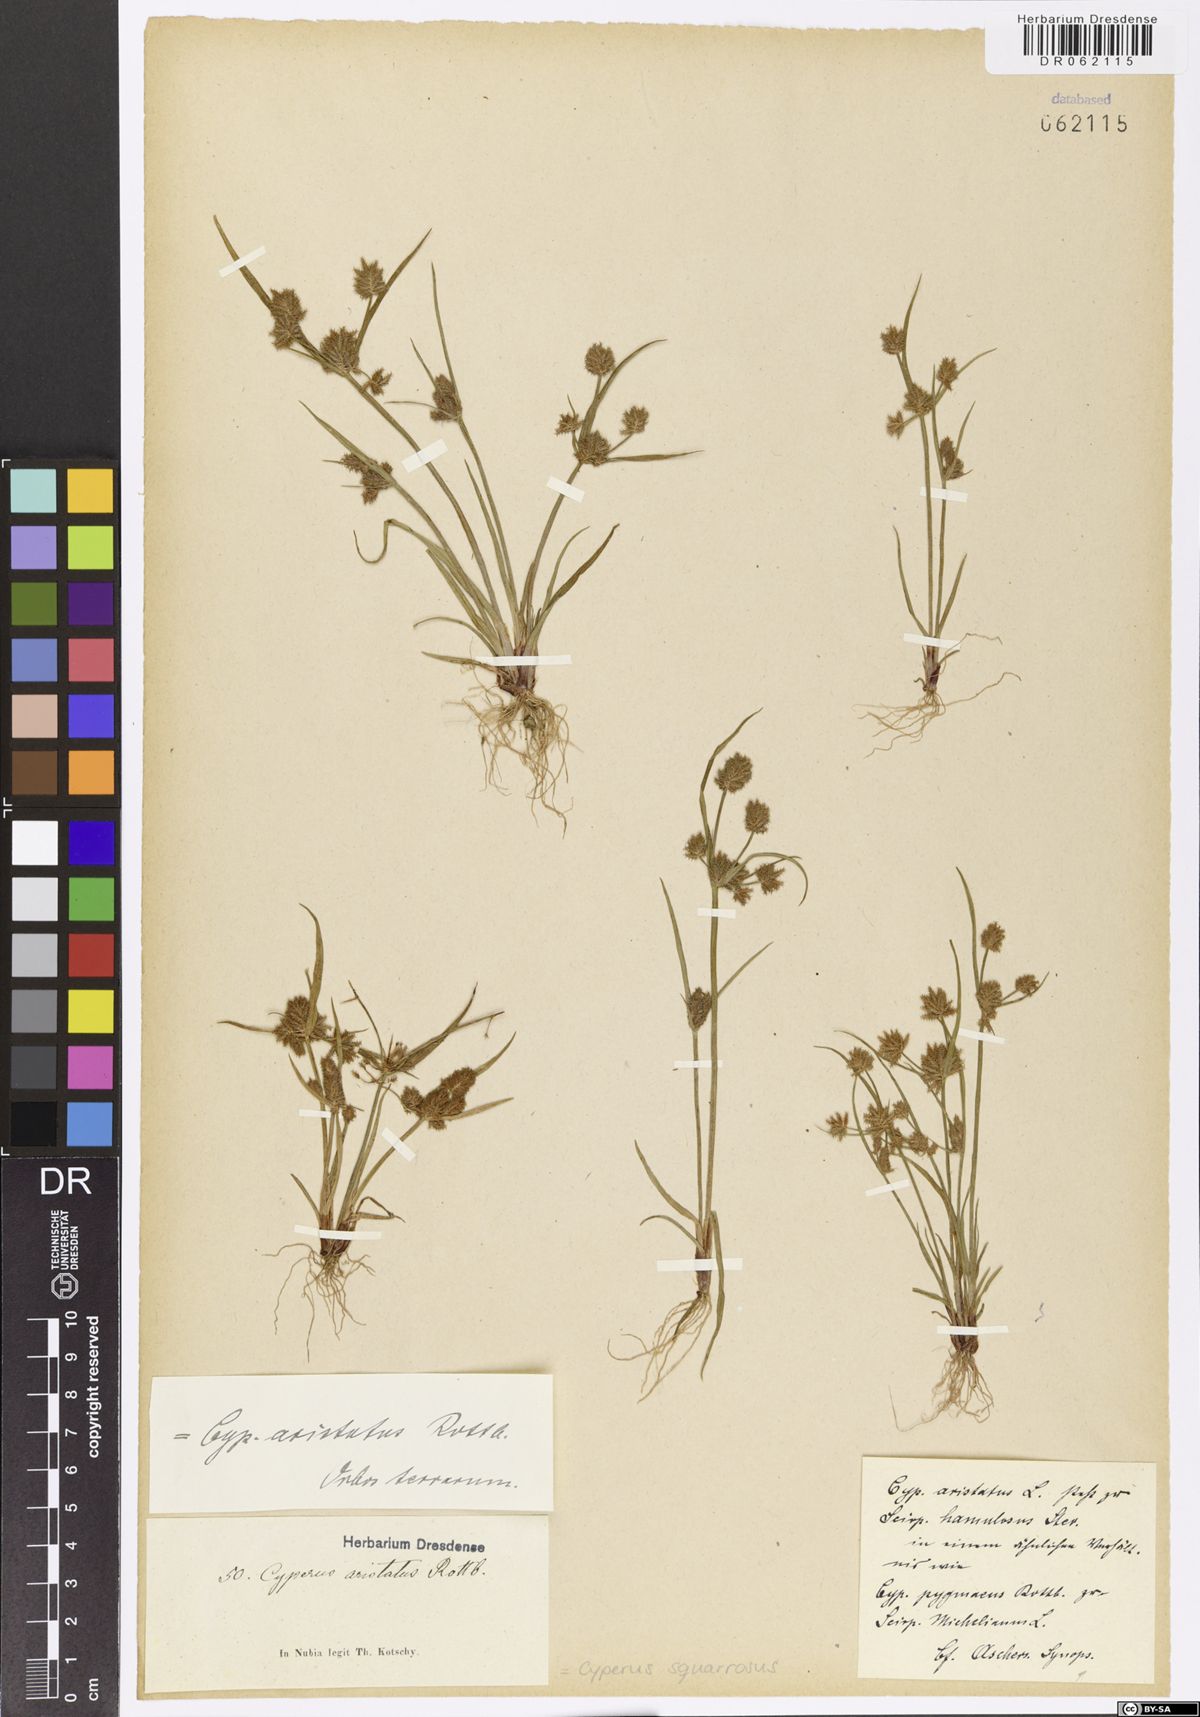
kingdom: Plantae
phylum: Tracheophyta
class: Liliopsida
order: Poales
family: Cyperaceae
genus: Cyperus
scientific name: Cyperus squarrosus
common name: Awned cyperus
